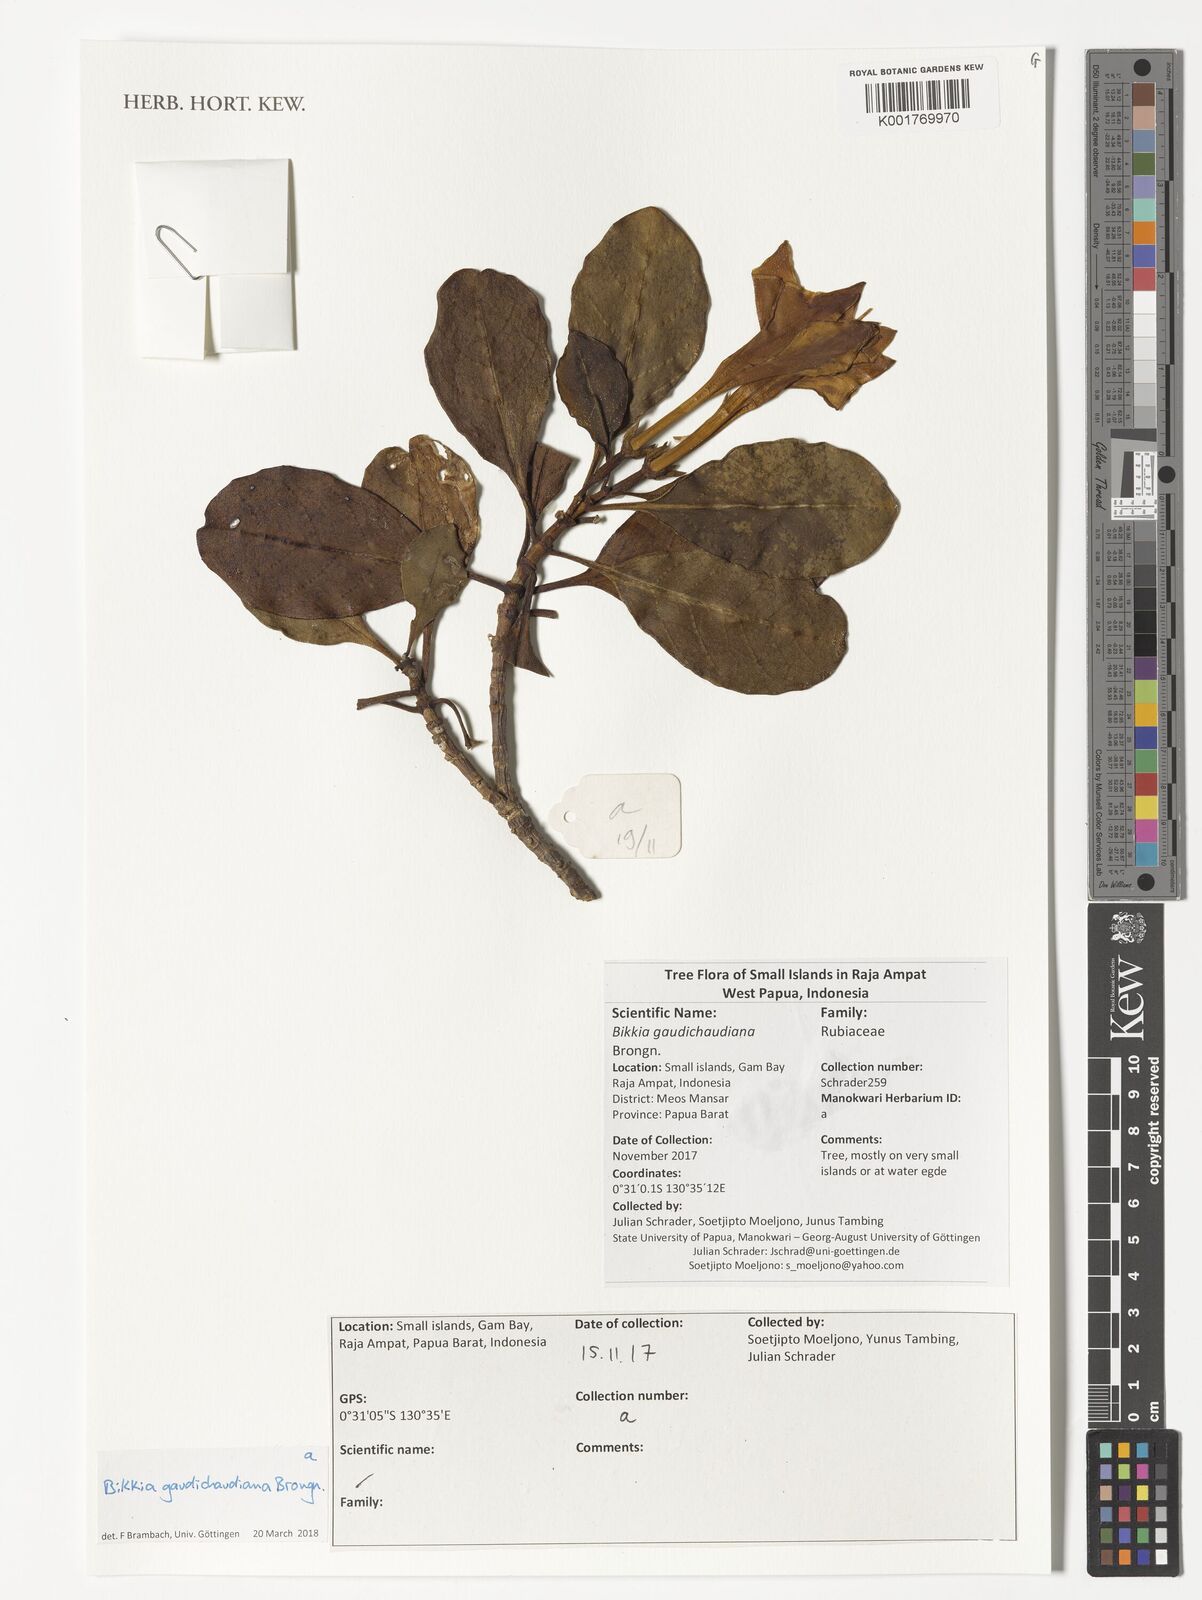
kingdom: Plantae
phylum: Tracheophyta
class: Magnoliopsida
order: Gentianales
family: Rubiaceae
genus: Bikkia
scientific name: Bikkia gaudichaudiana
